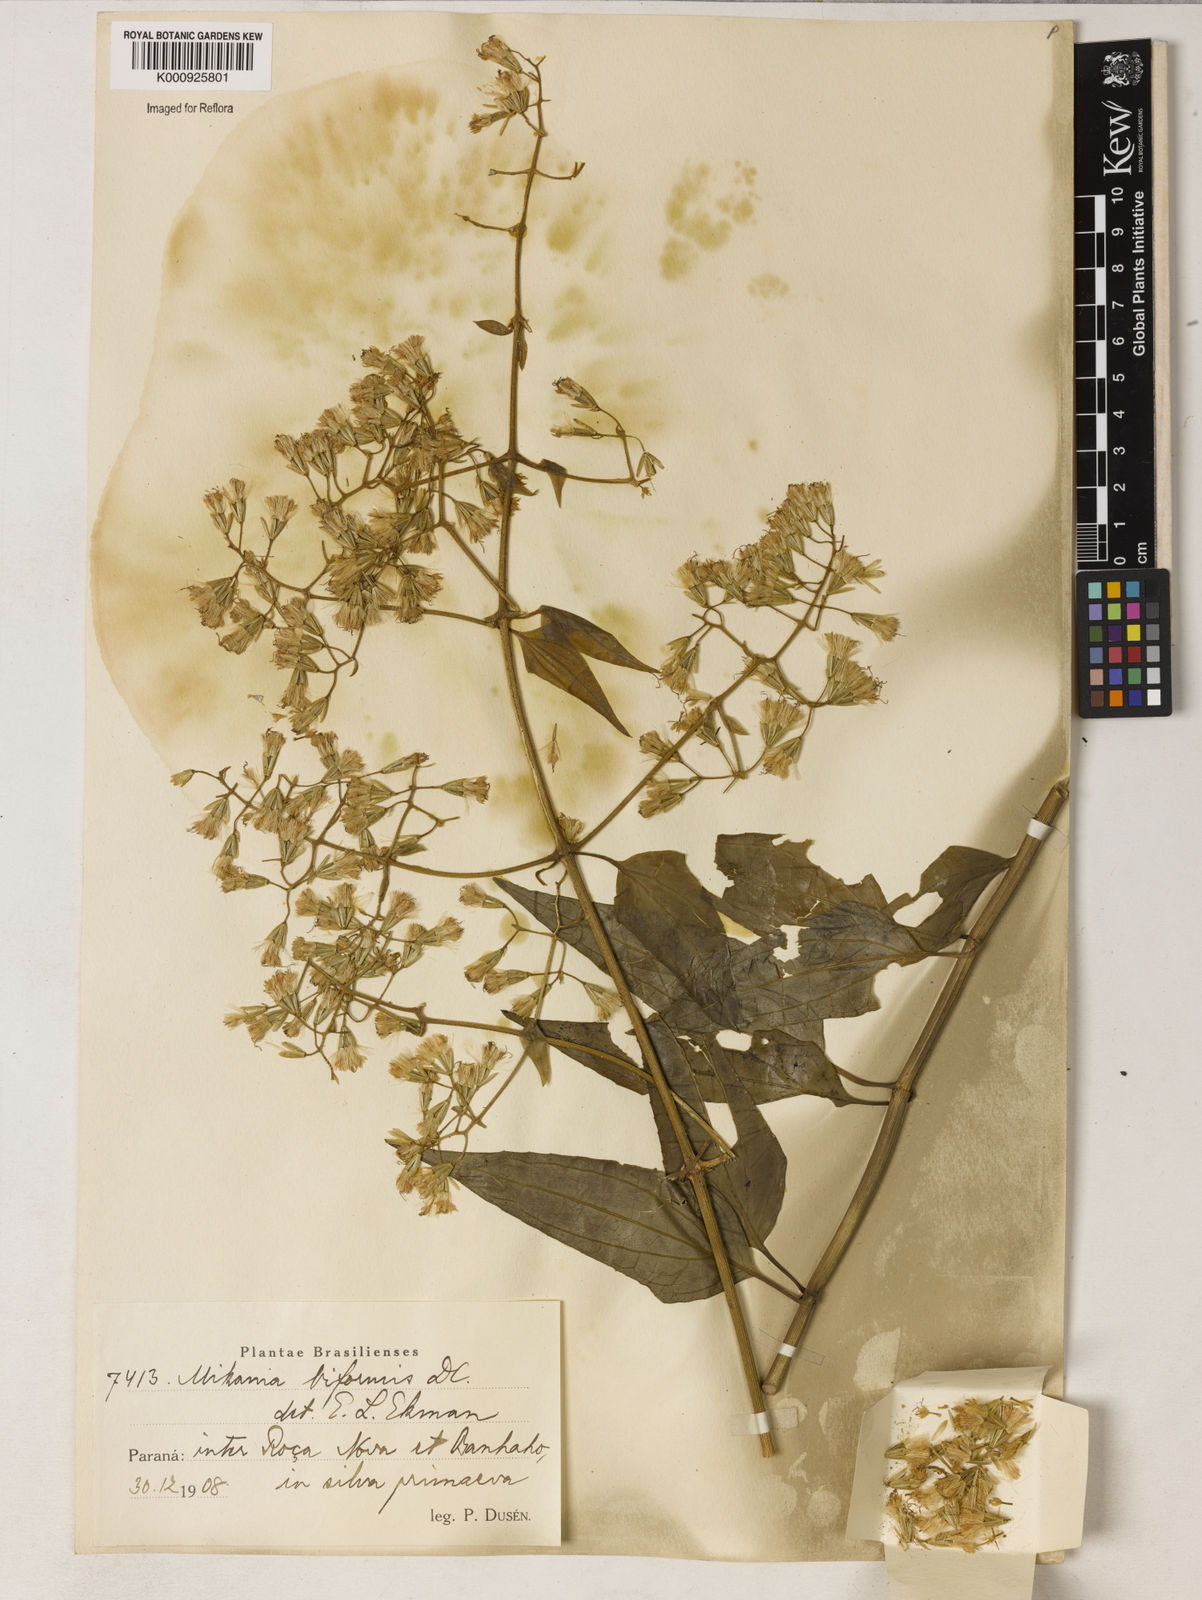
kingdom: Plantae
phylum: Tracheophyta
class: Magnoliopsida
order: Asterales
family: Asteraceae
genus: Mikania
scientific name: Mikania diversifolia
